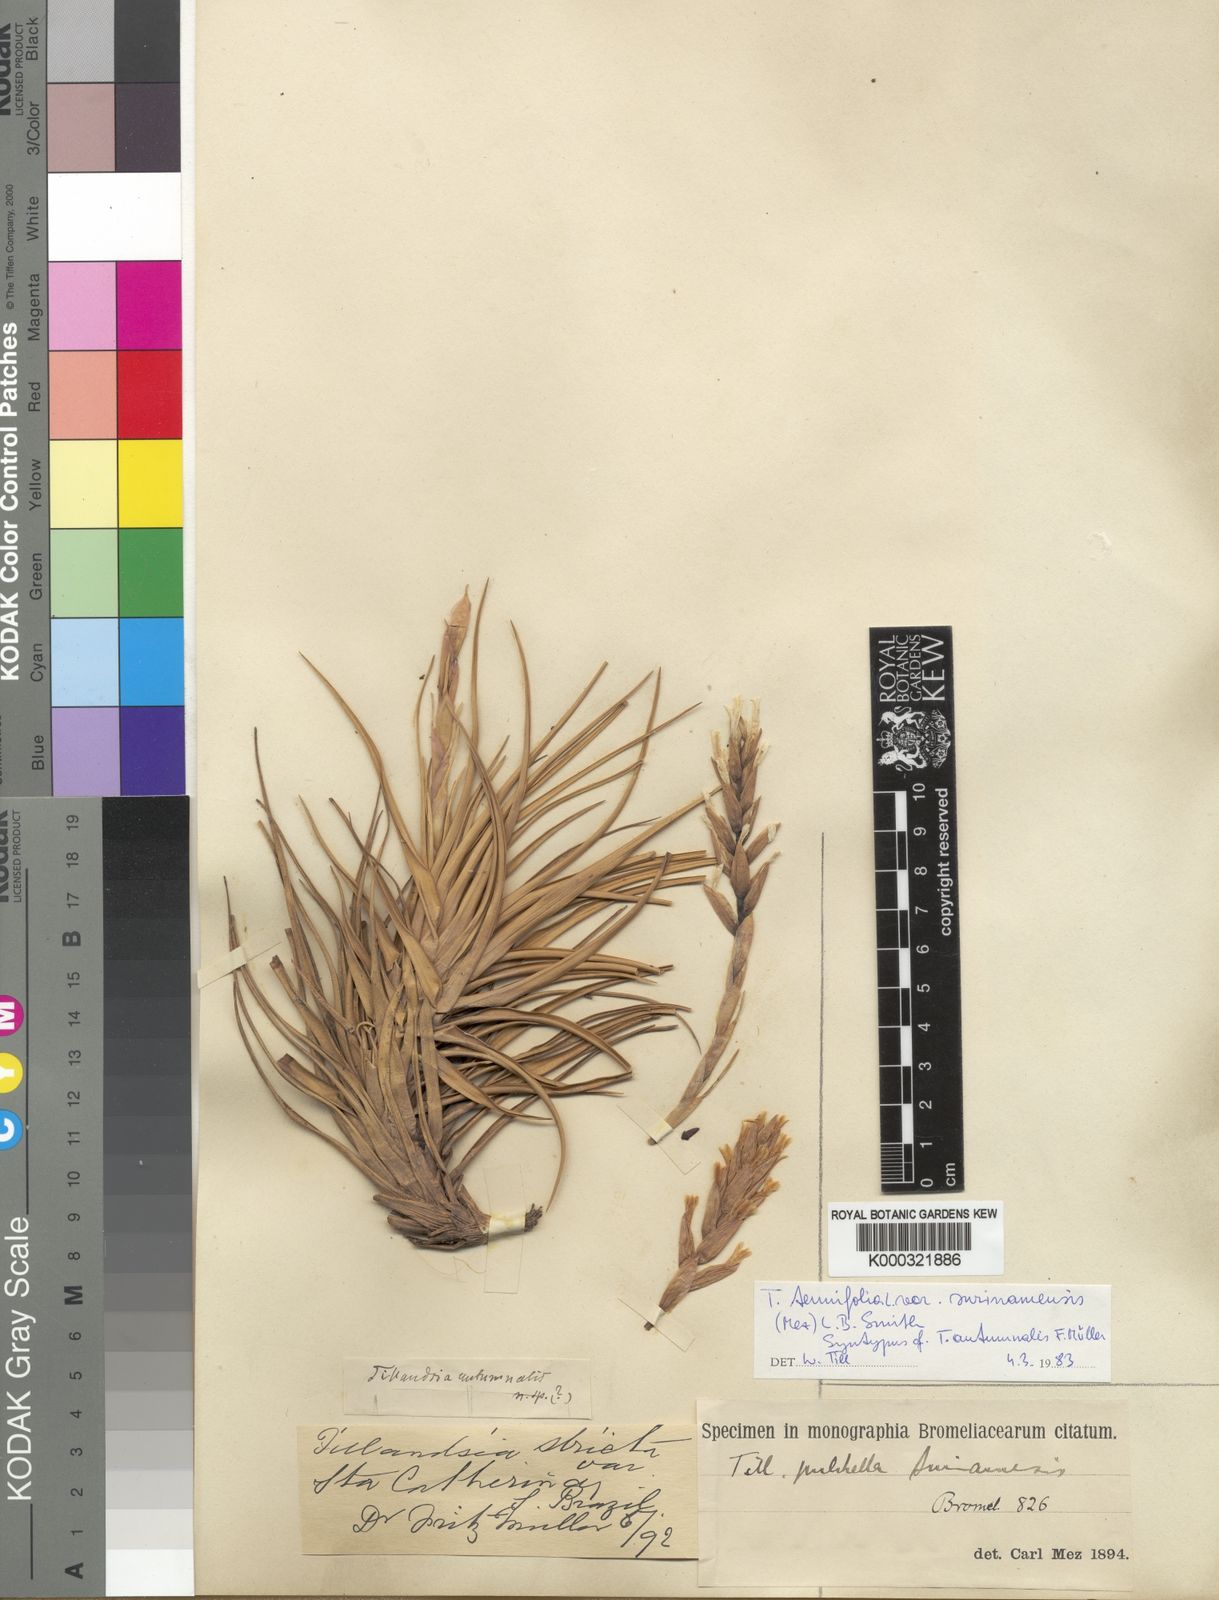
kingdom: Plantae
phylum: Tracheophyta
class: Liliopsida
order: Poales
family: Bromeliaceae
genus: Tillandsia
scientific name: Tillandsia tenuifolia
